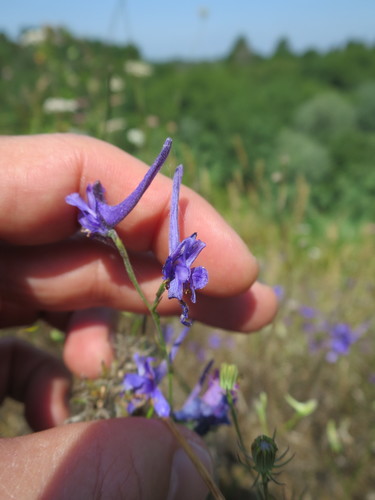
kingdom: Plantae
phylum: Tracheophyta
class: Magnoliopsida
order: Ranunculales
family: Ranunculaceae
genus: Delphinium
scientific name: Delphinium gracile
